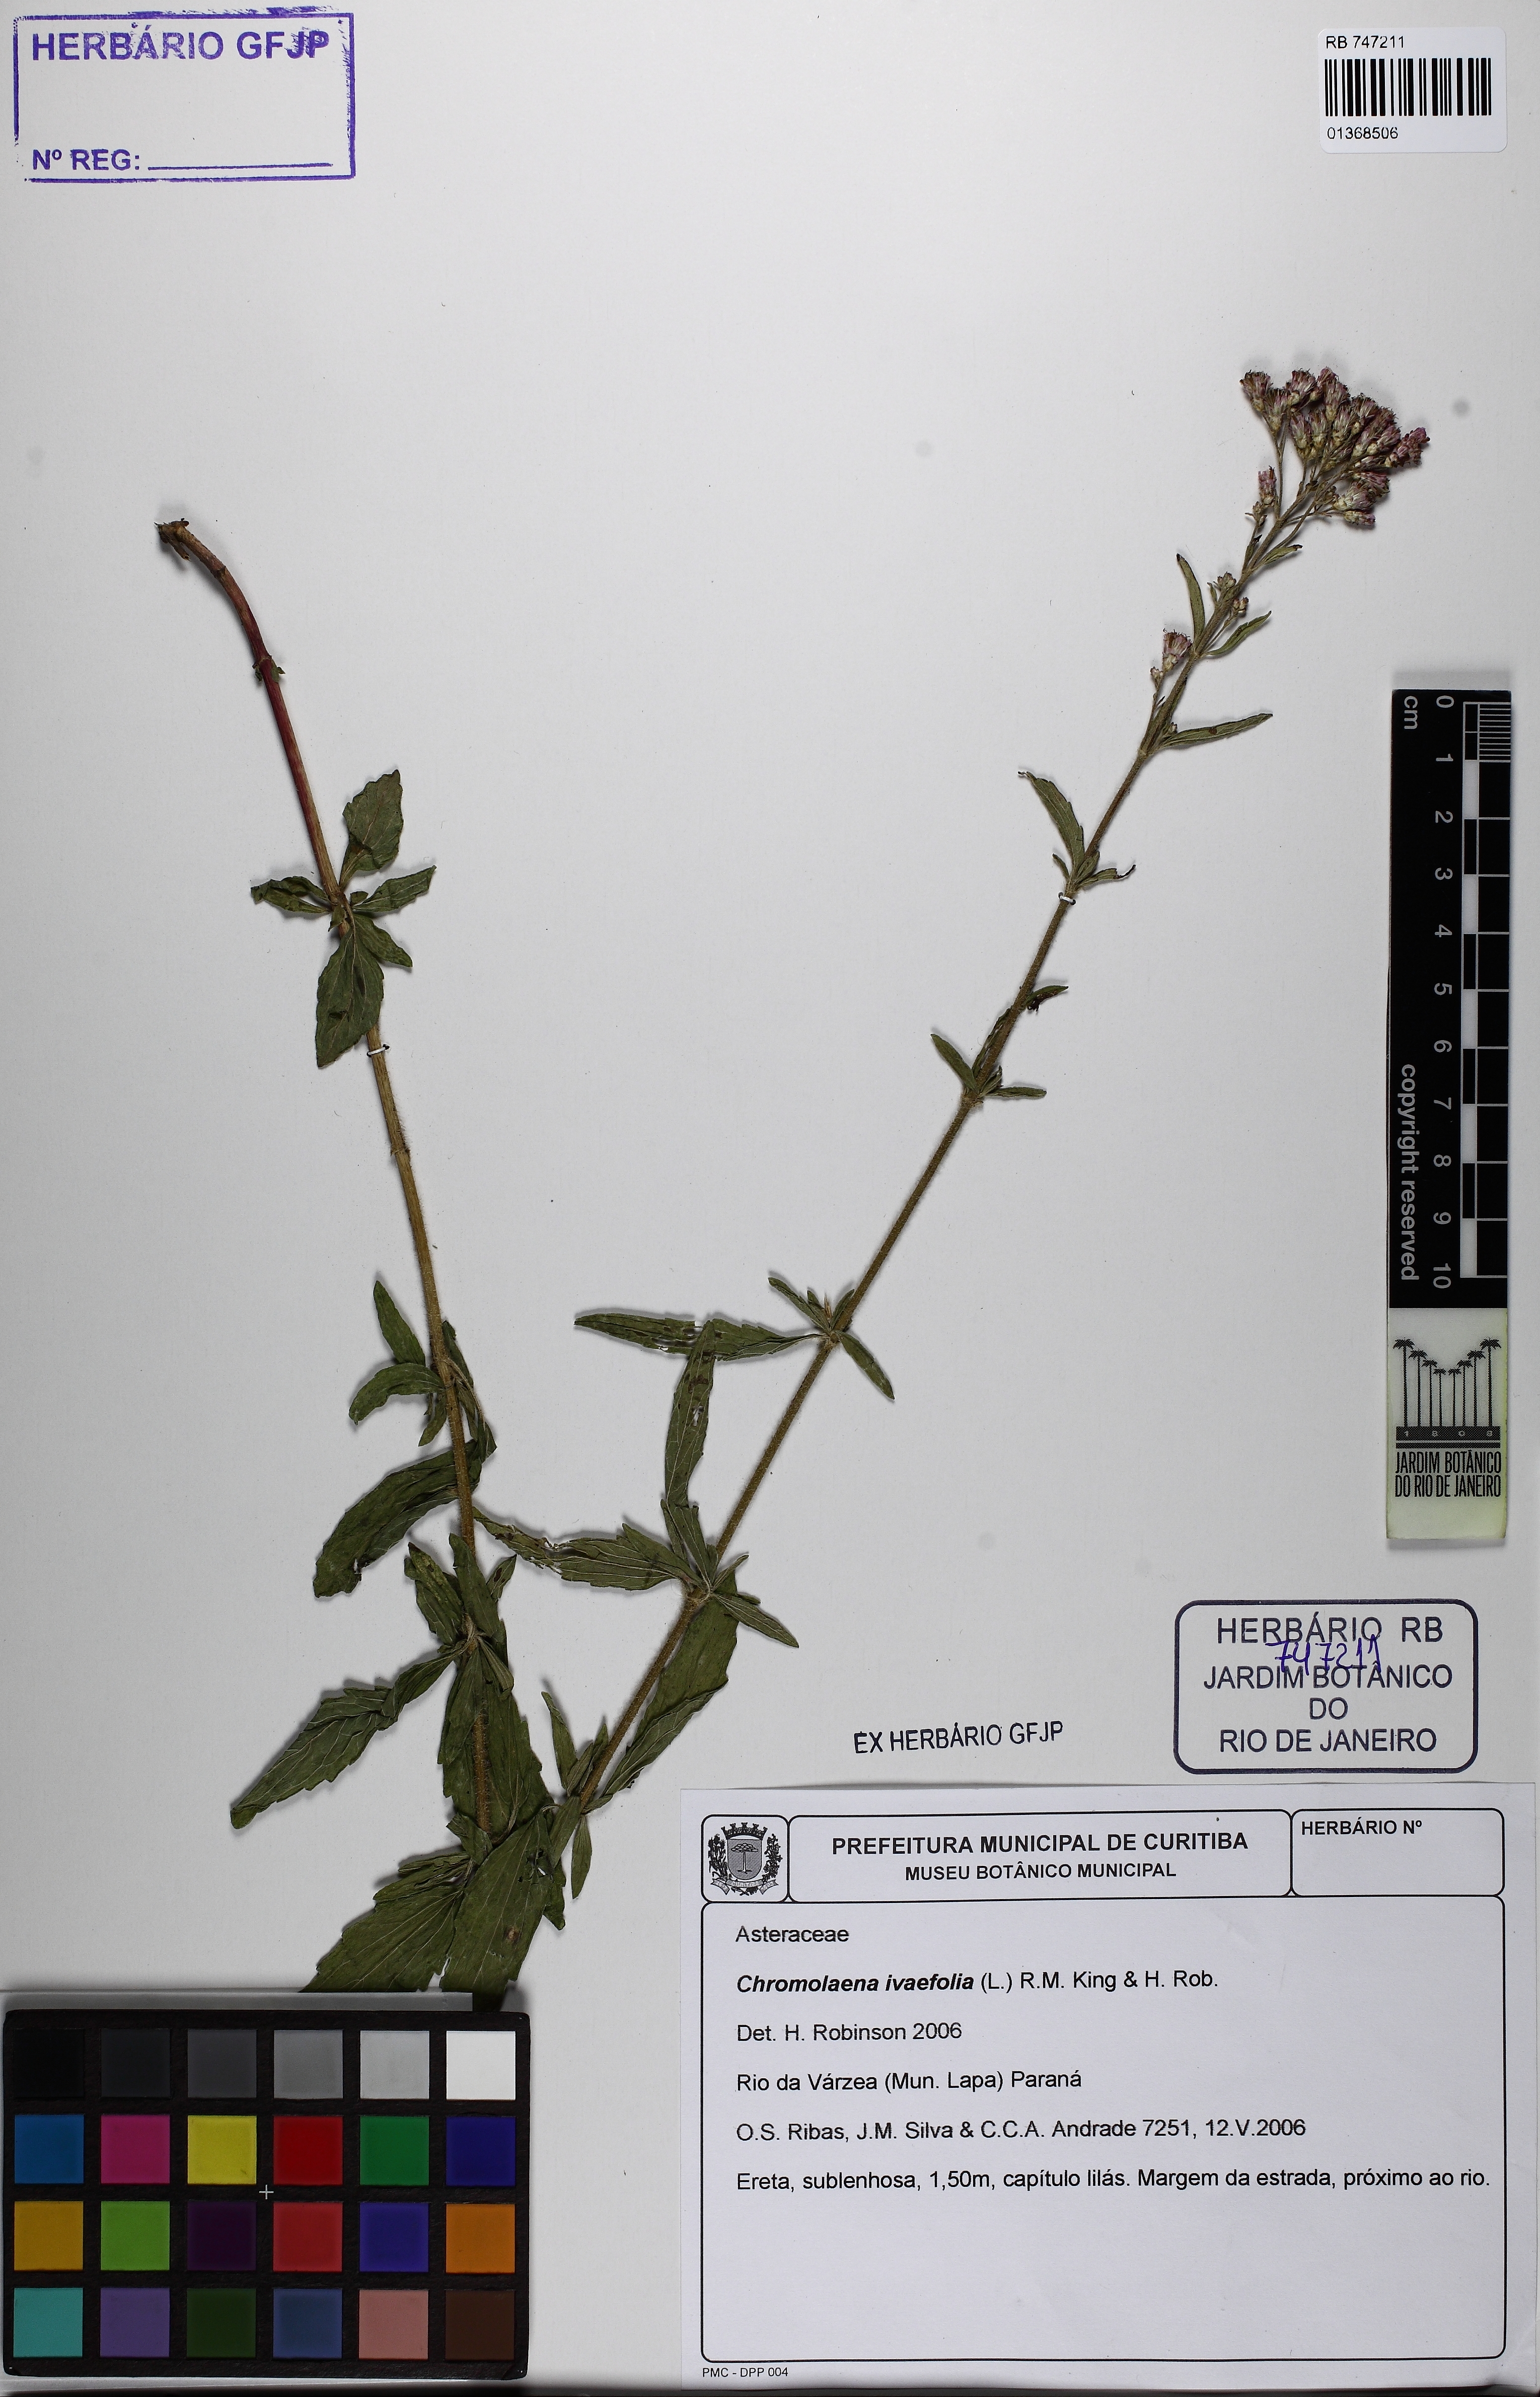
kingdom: Plantae
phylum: Tracheophyta
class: Magnoliopsida
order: Asterales
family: Asteraceae
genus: Chromolaena
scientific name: Chromolaena ivifolia
